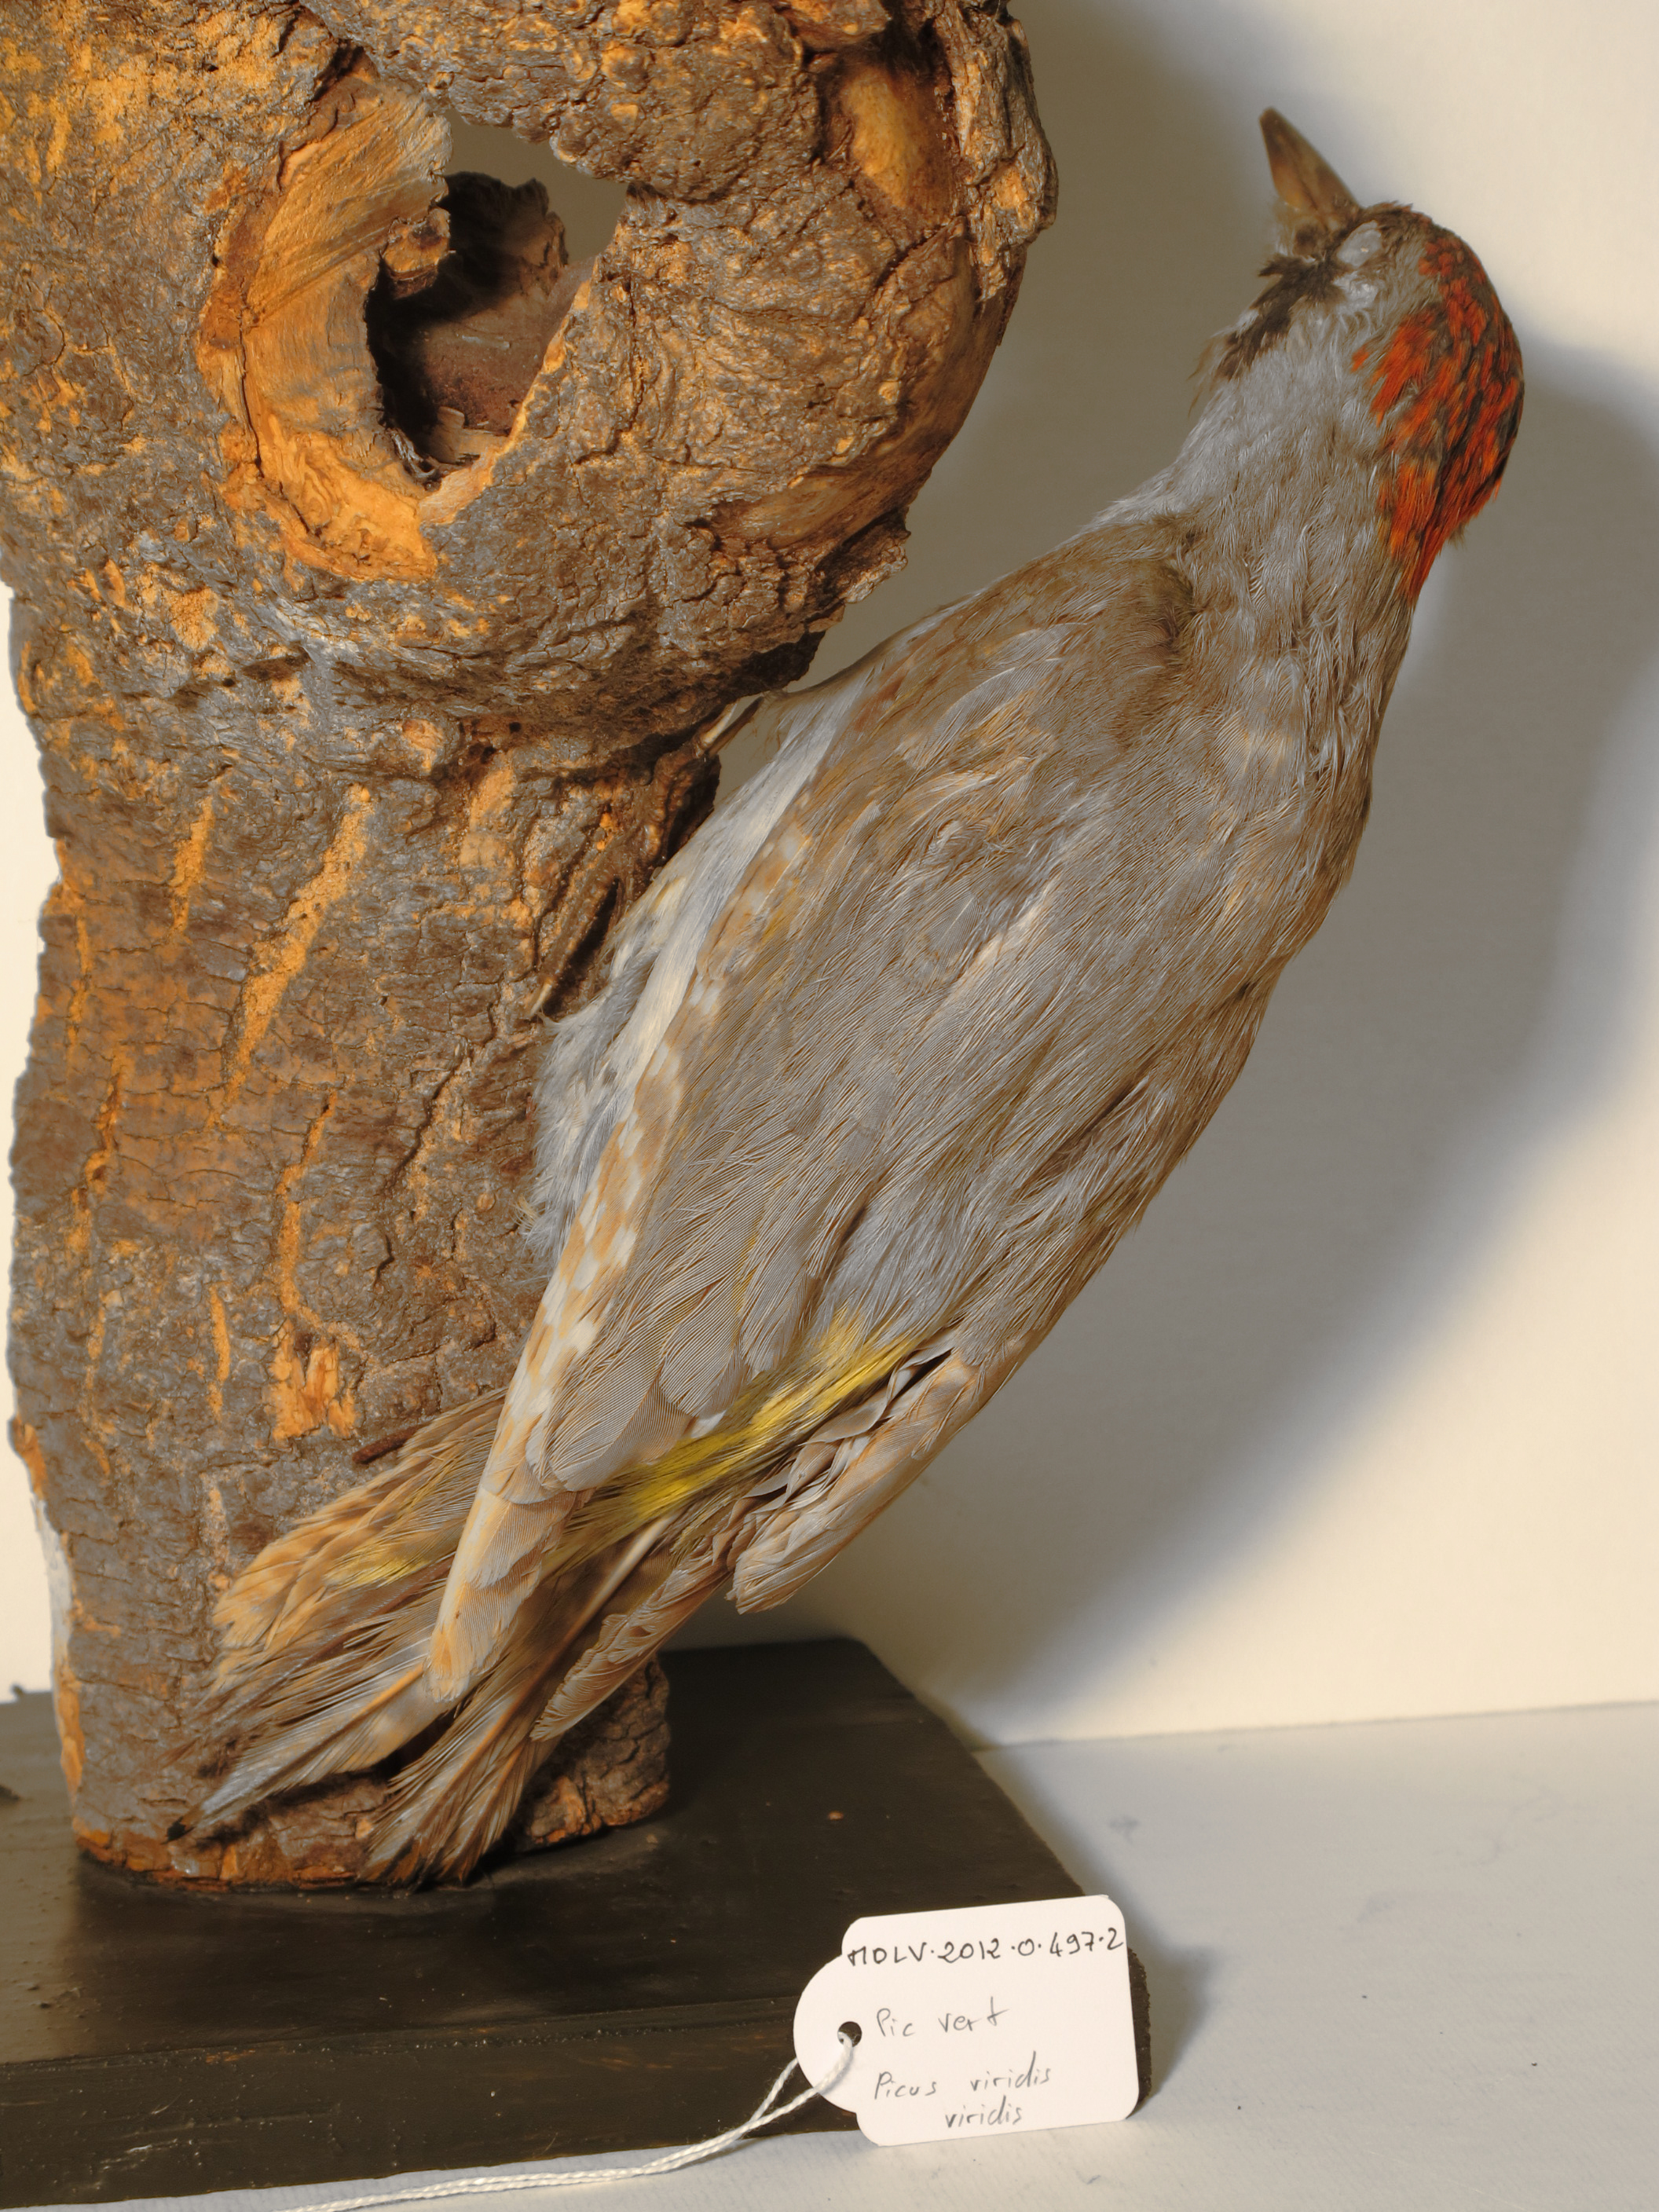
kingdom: Animalia
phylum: Chordata
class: Aves
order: Piciformes
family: Picidae
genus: Picus
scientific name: Picus viridis
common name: Eurasian Green Woodpecker
